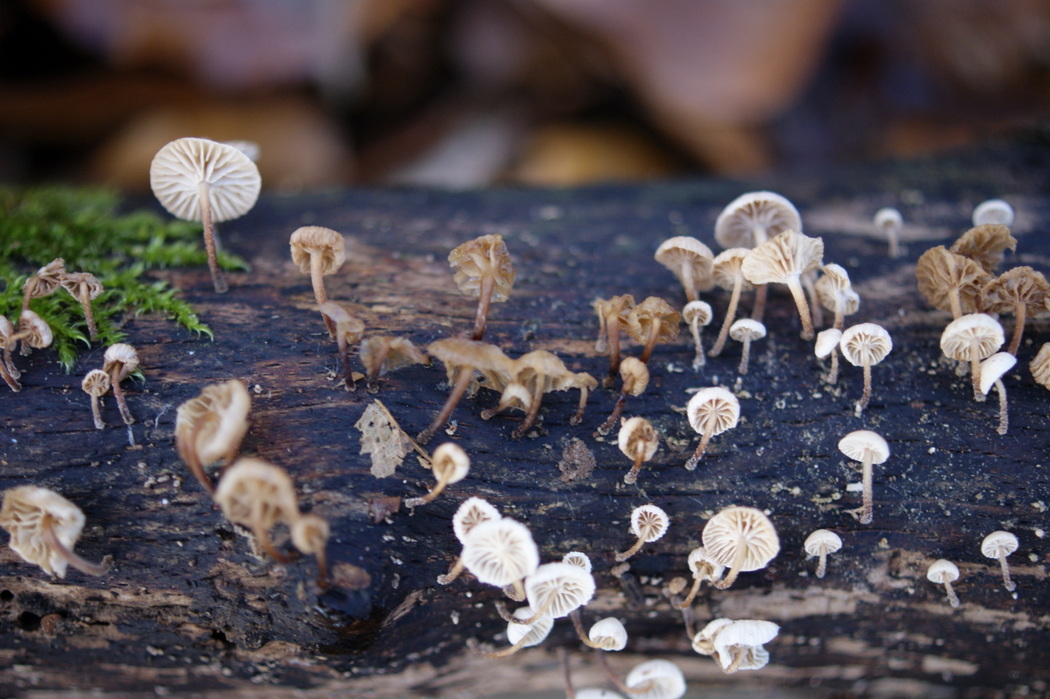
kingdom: Fungi
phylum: Basidiomycota
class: Agaricomycetes
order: Agaricales
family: Omphalotaceae
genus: Collybiopsis
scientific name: Collybiopsis ramealis
